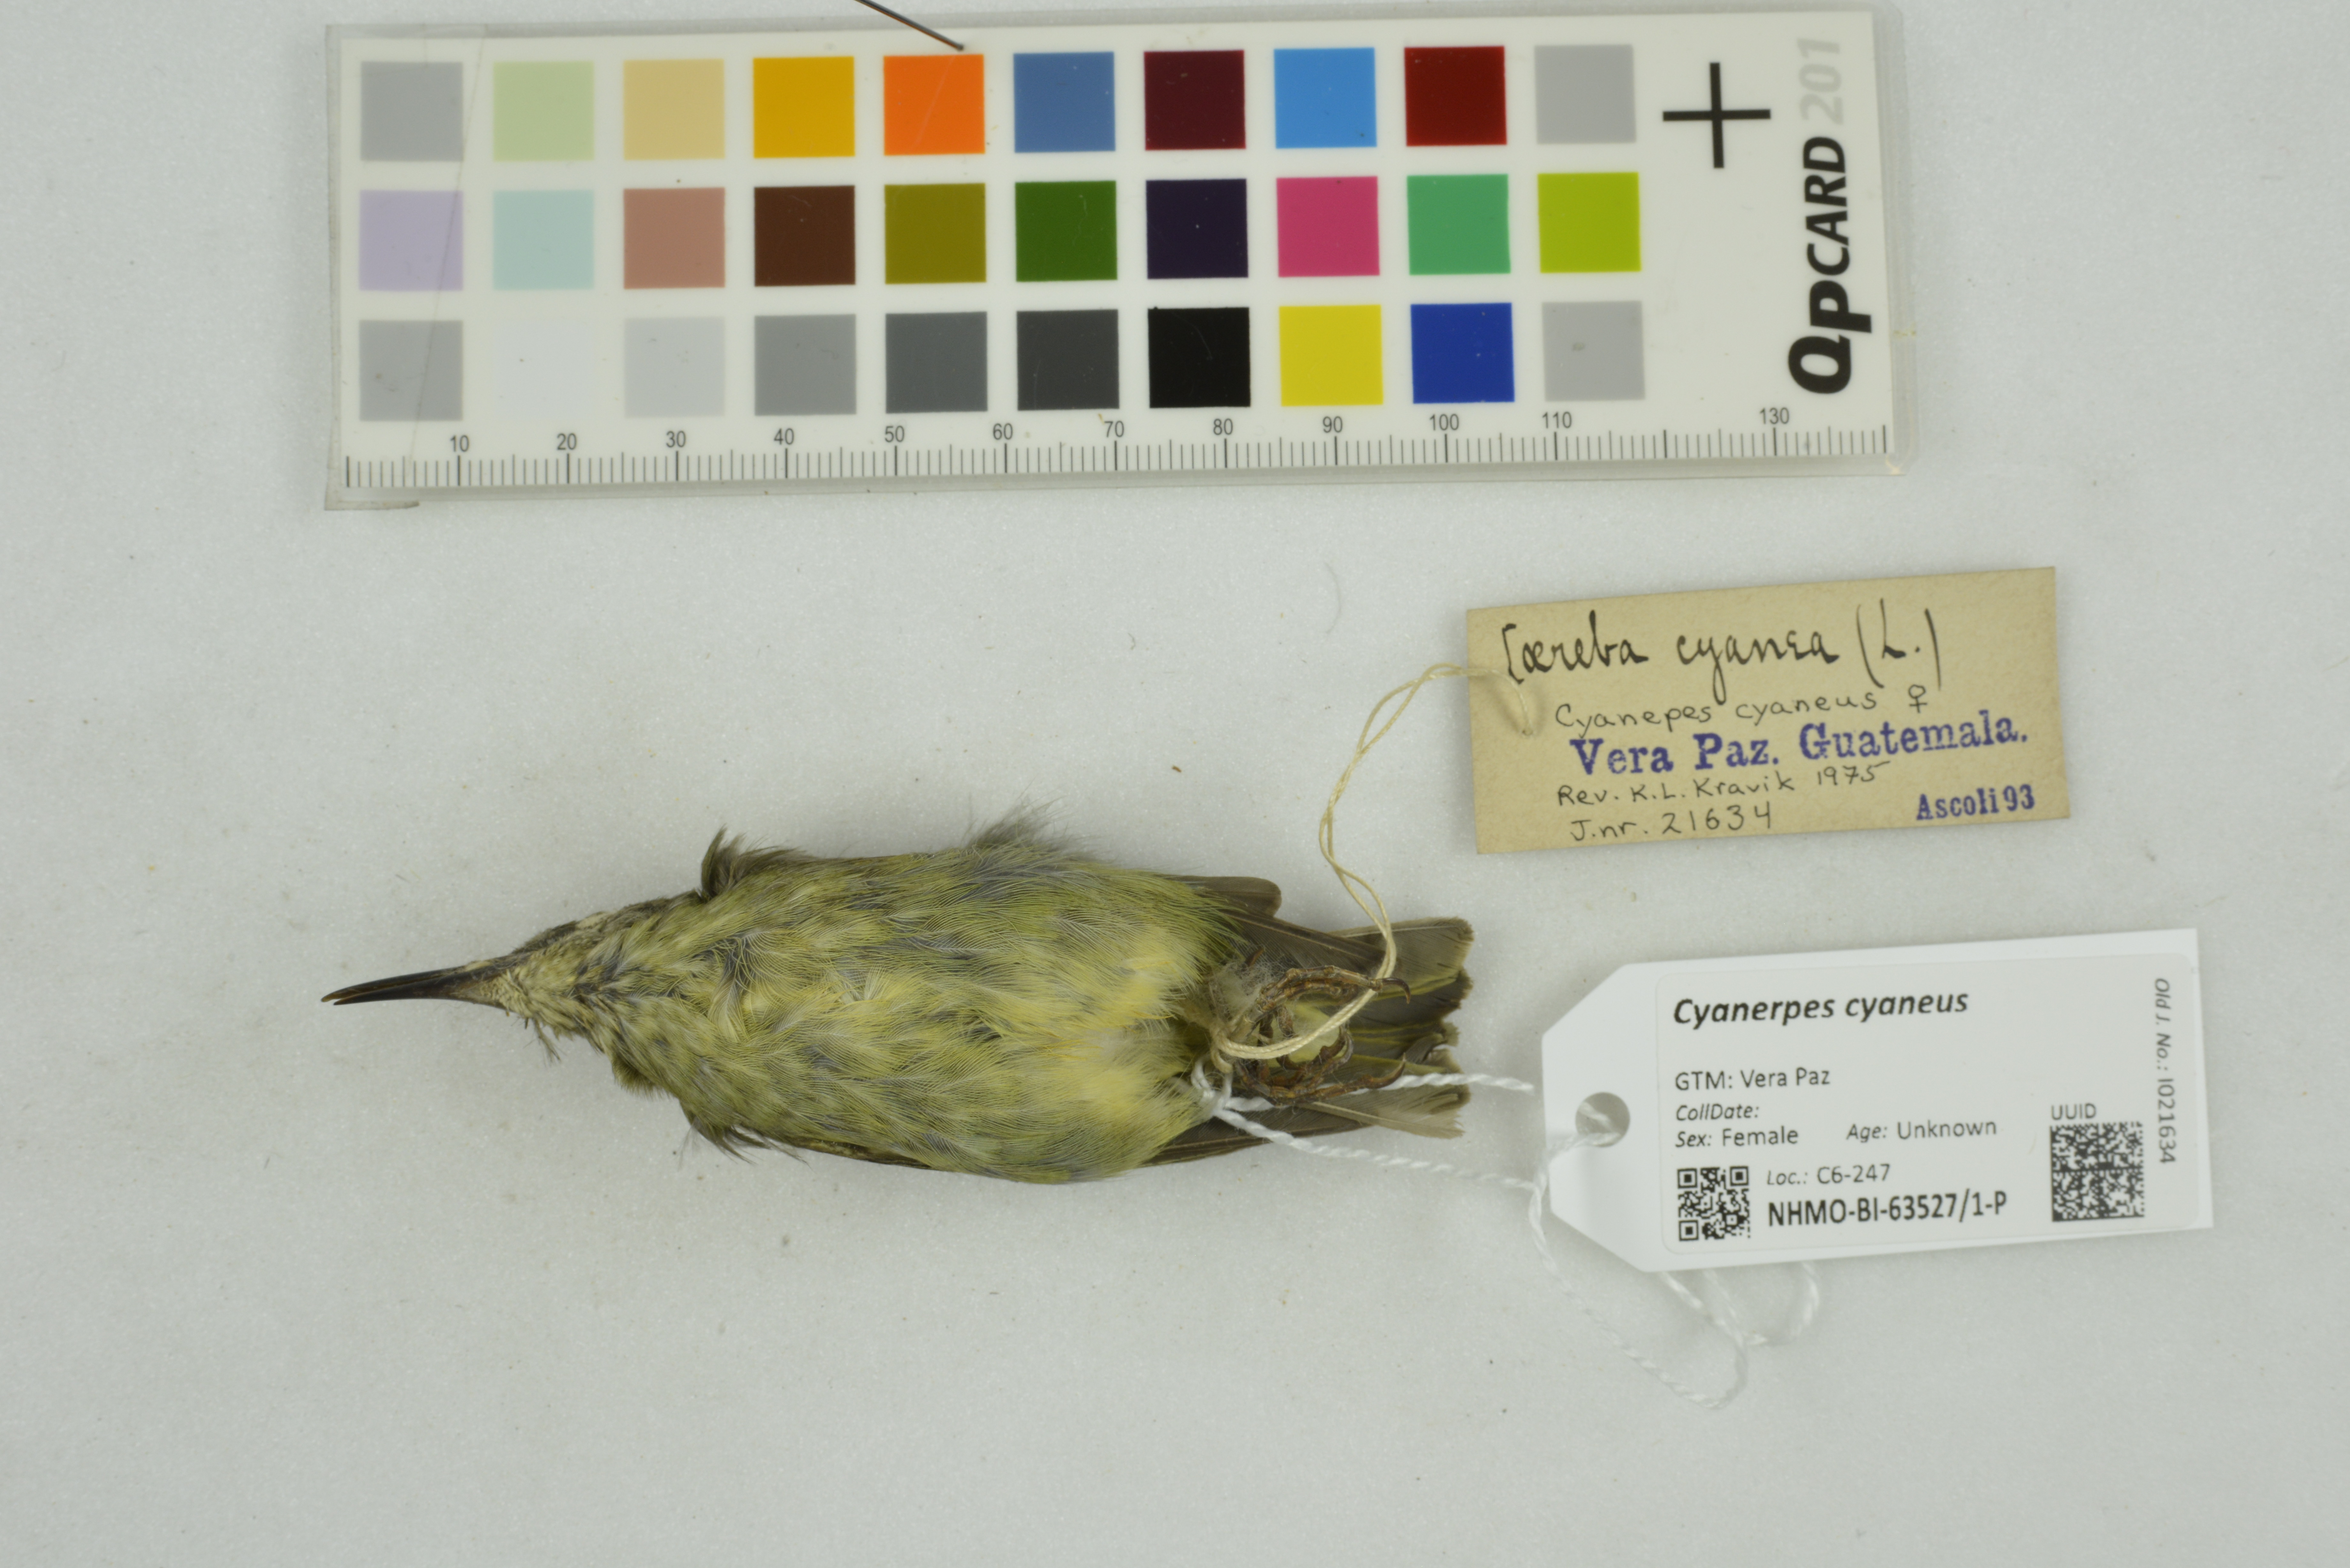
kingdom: Animalia
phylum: Chordata
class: Aves
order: Passeriformes
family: Thraupidae
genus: Cyanerpes
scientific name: Cyanerpes cyaneus
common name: Red-legged honeycreeper
